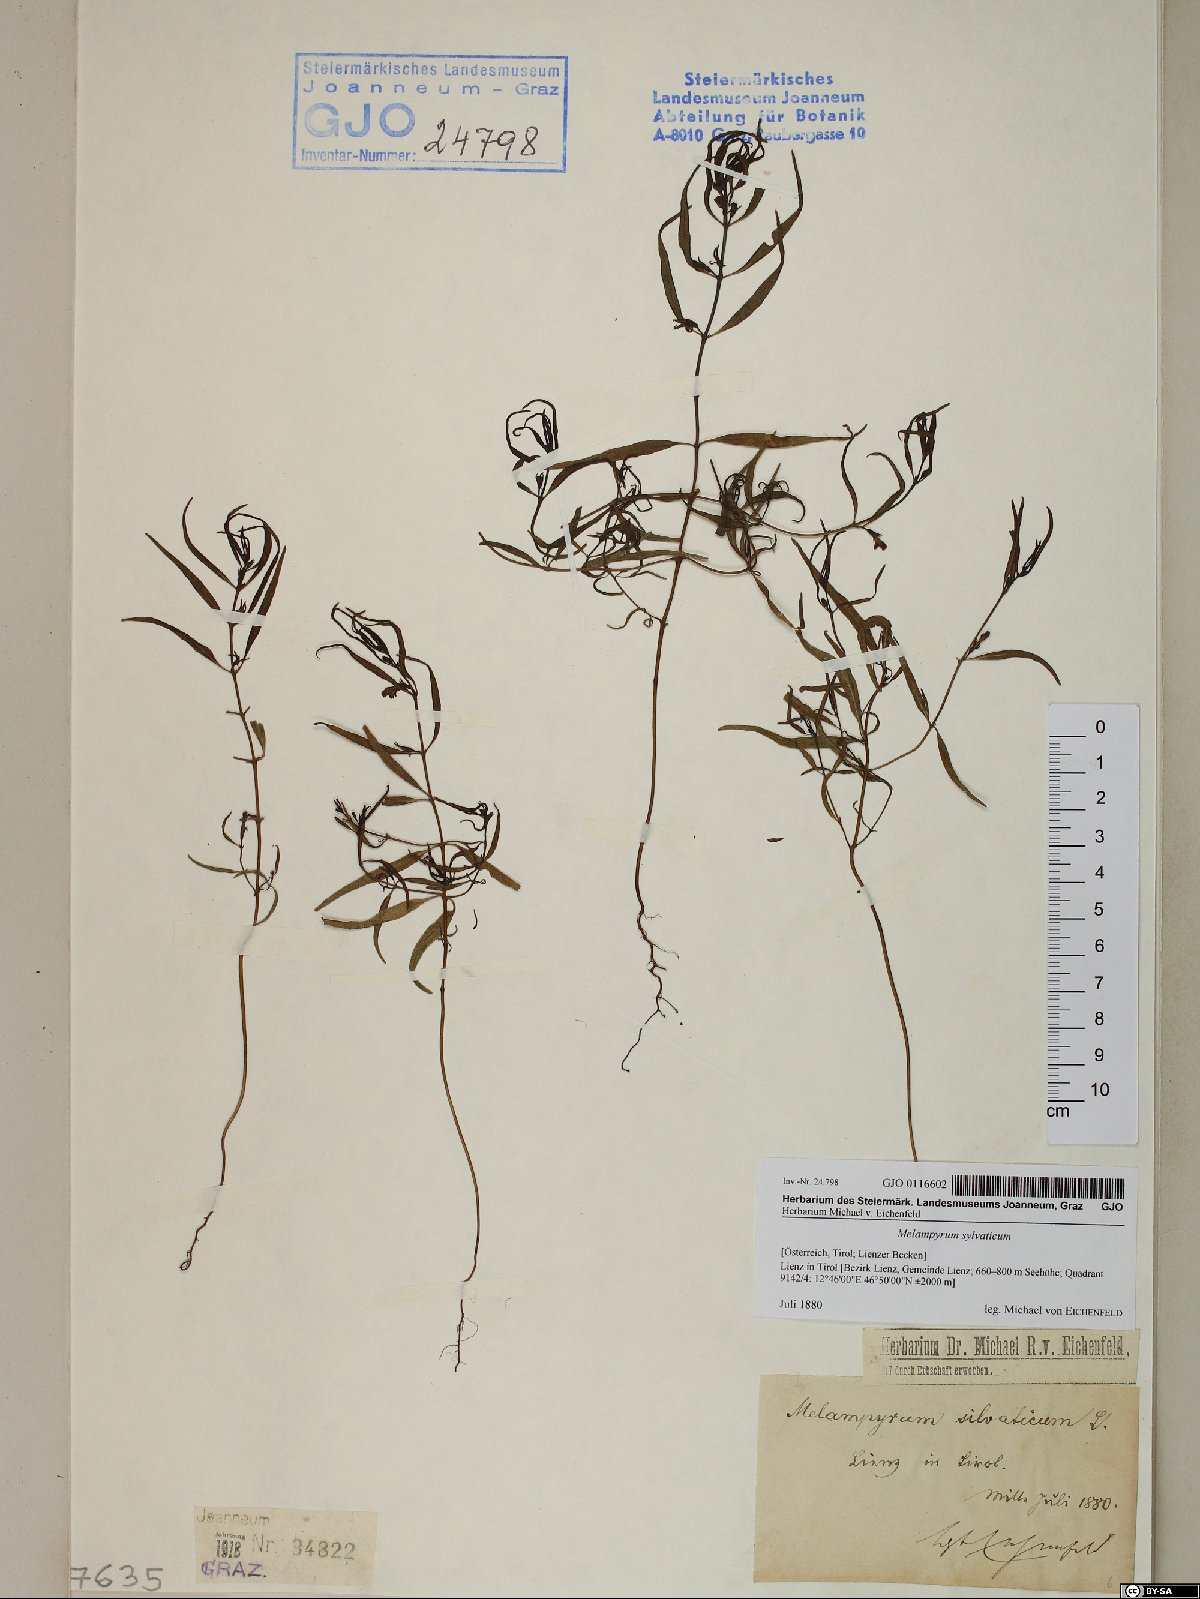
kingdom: Plantae
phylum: Tracheophyta
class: Magnoliopsida
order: Lamiales
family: Orobanchaceae
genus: Melampyrum
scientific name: Melampyrum sylvaticum
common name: Small cow-wheat
